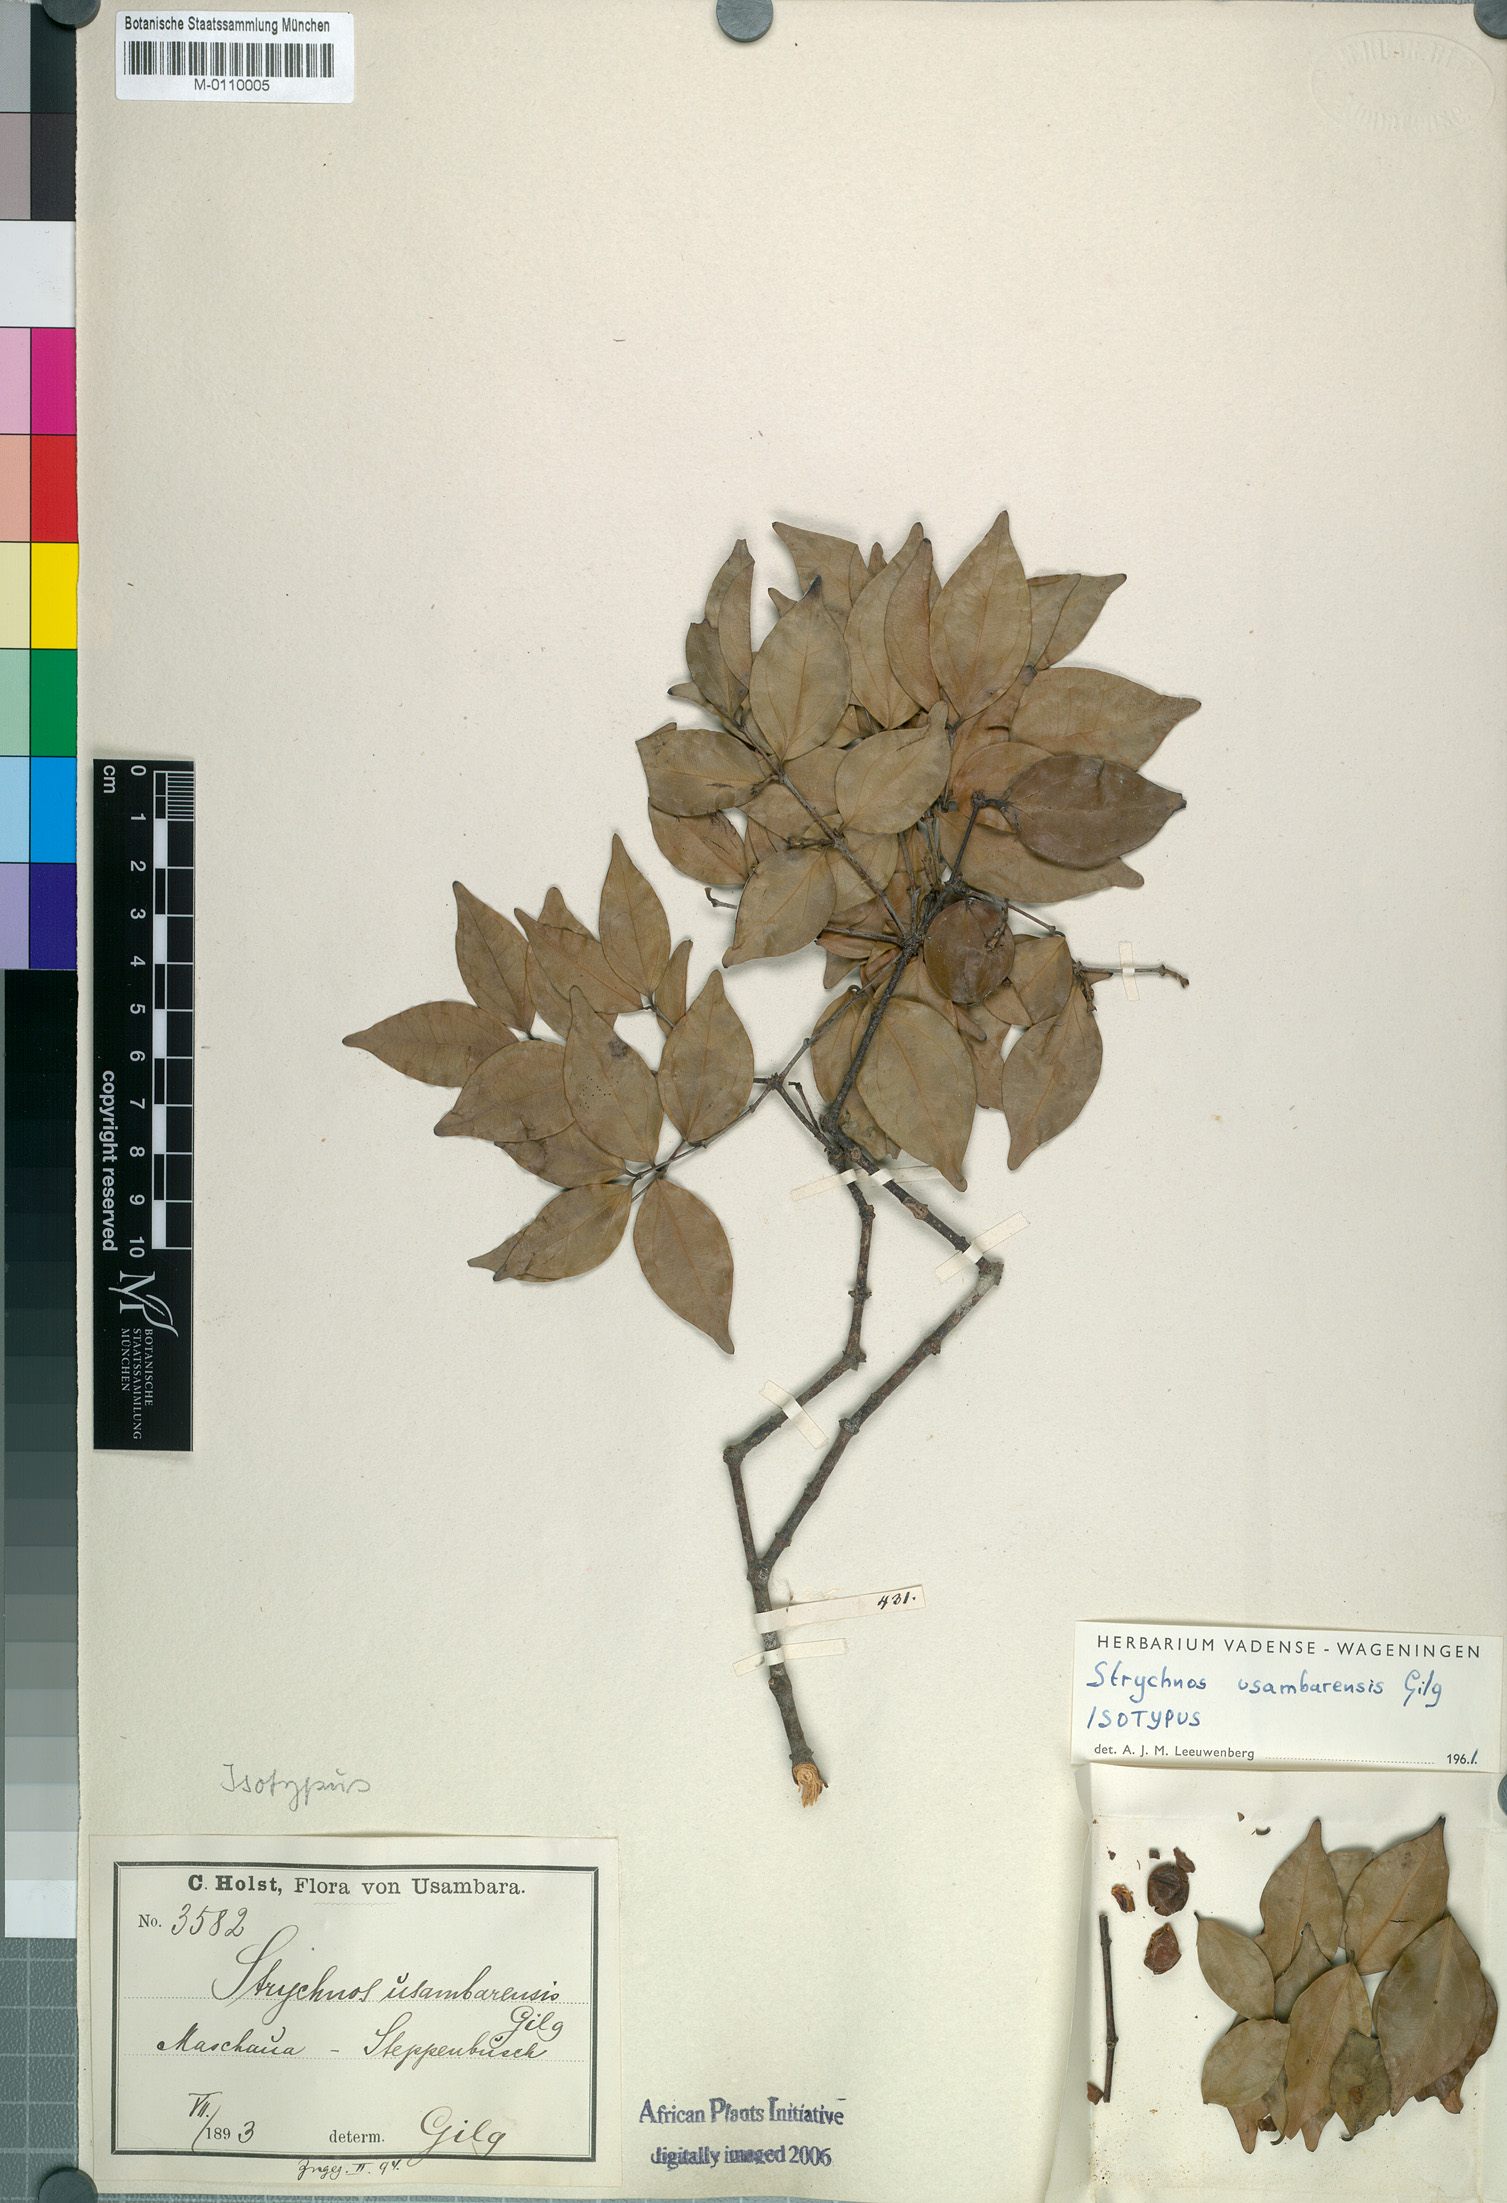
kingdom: Plantae
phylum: Tracheophyta
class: Magnoliopsida
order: Gentianales
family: Loganiaceae
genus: Strychnos
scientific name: Strychnos usambarensis
